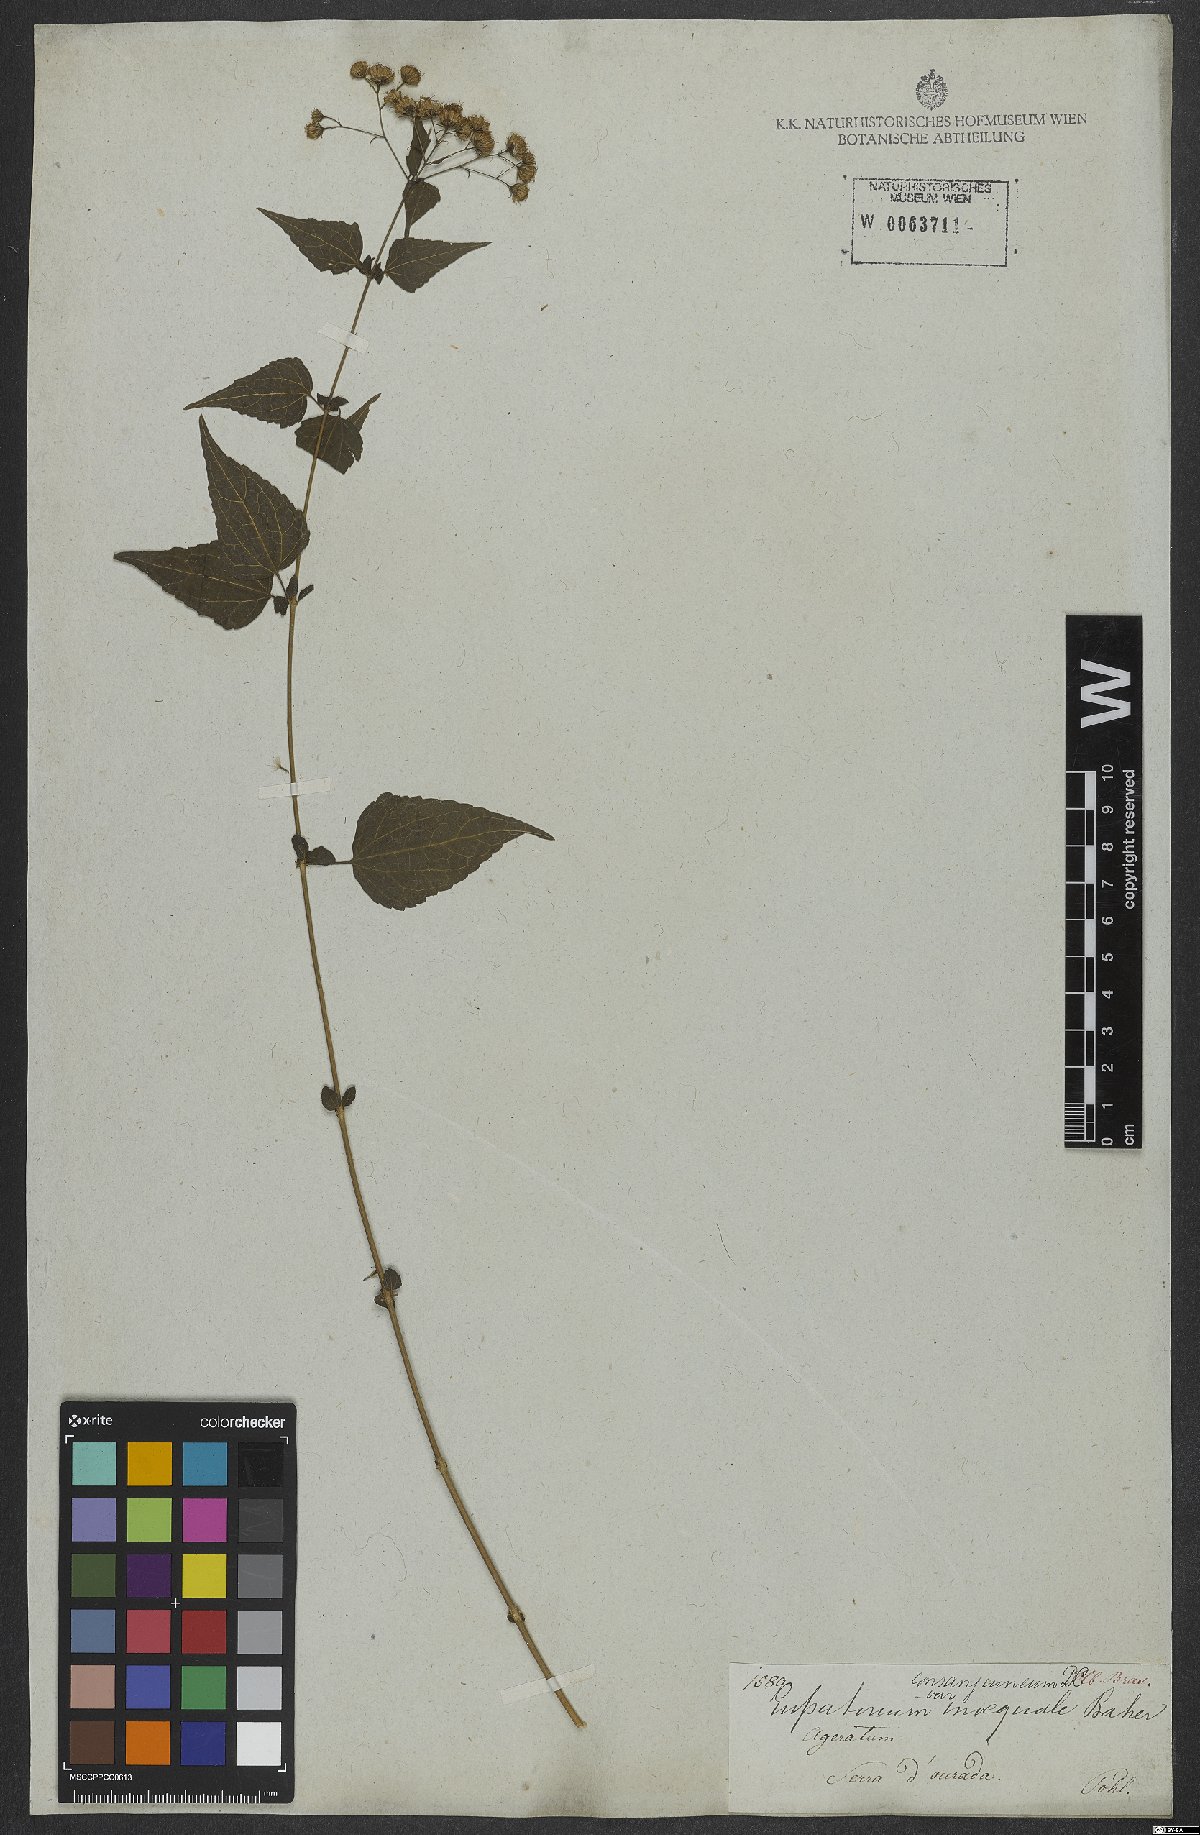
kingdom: Plantae
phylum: Tracheophyta
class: Magnoliopsida
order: Asterales
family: Asteraceae
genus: Koanophyllon
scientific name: Koanophyllon consanguineum
